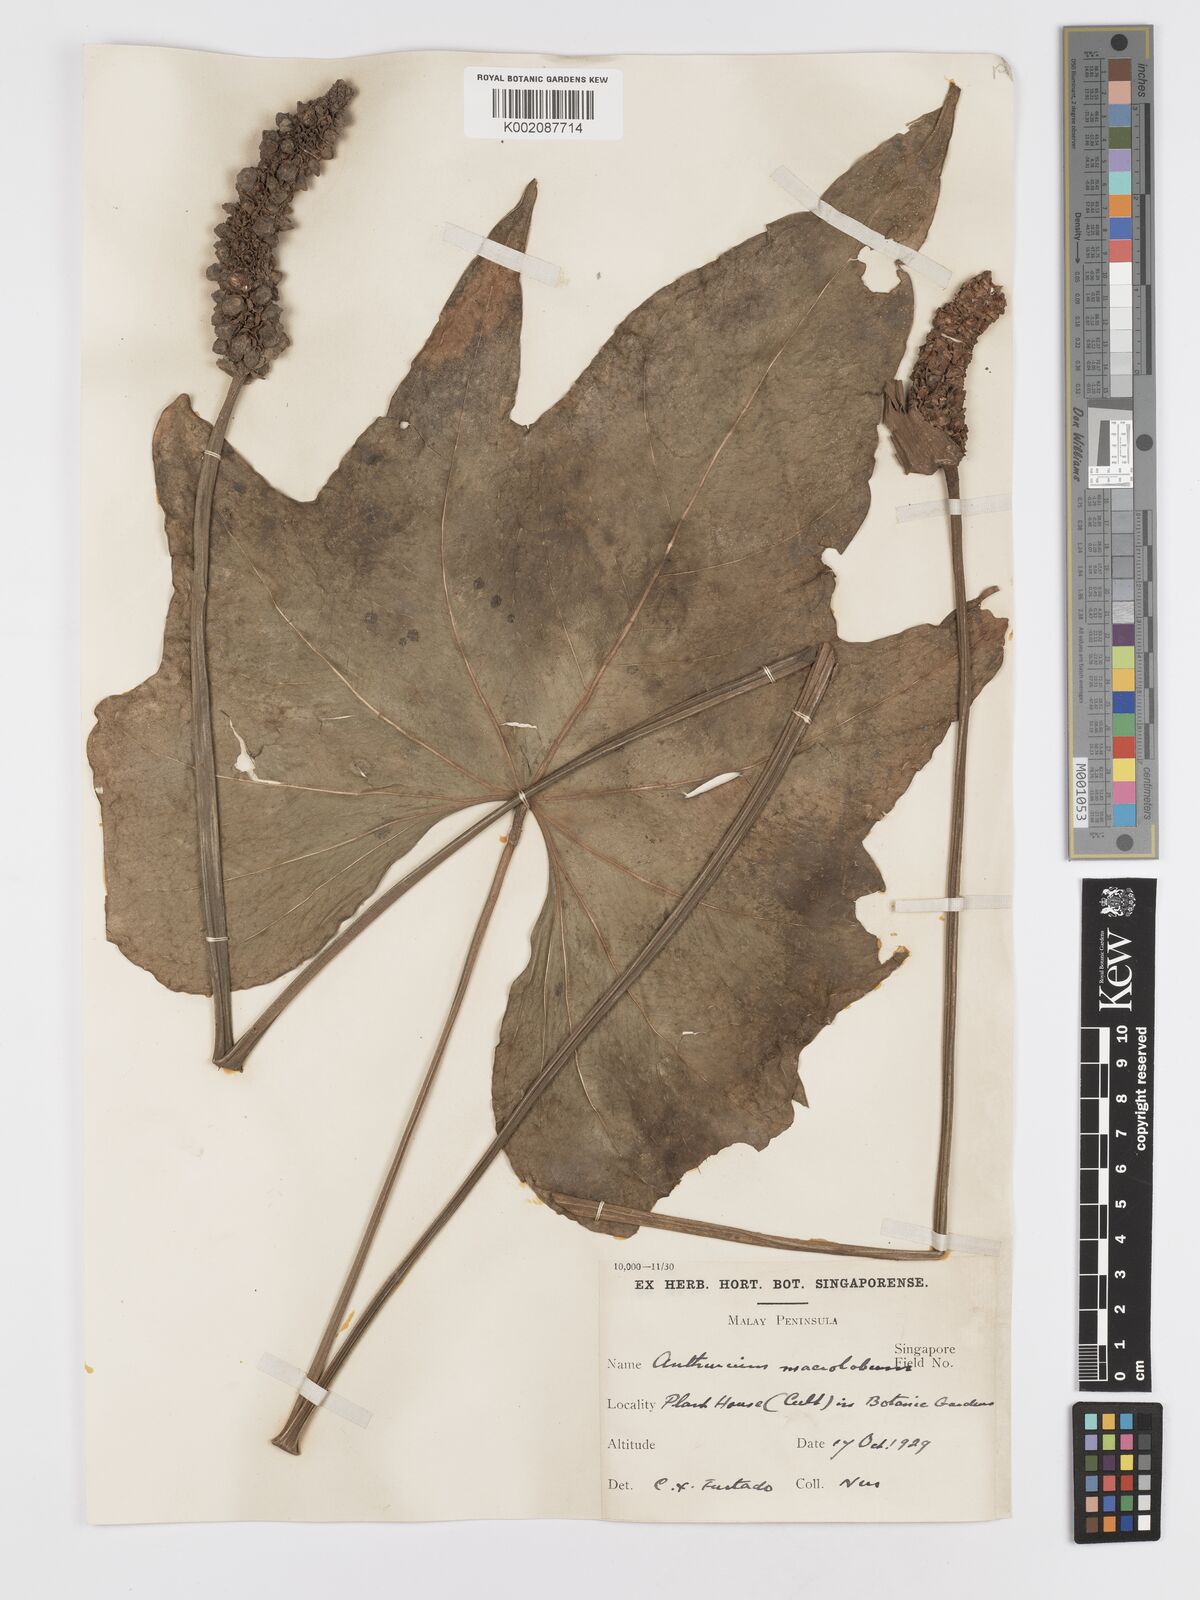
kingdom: Plantae
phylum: Tracheophyta
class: Liliopsida
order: Alismatales
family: Araceae
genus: Anthurium
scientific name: Anthurium leuconeurum
